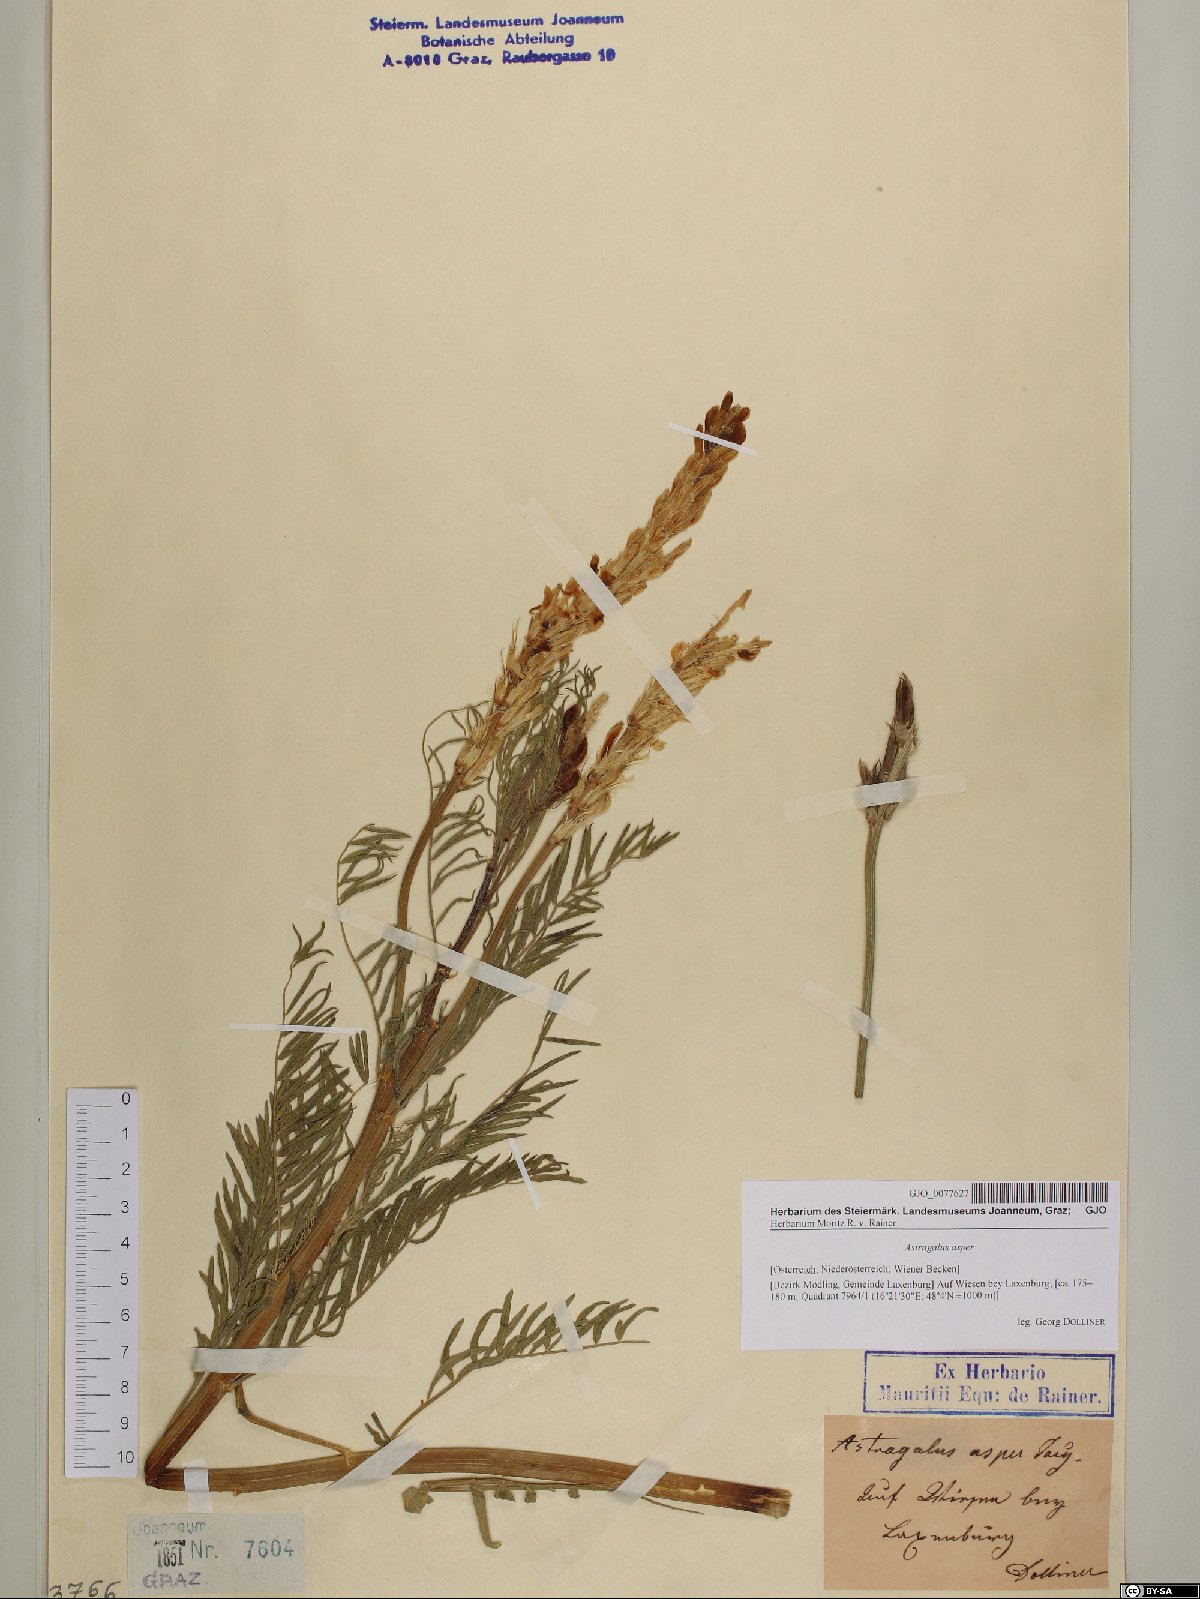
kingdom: Plantae
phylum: Tracheophyta
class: Magnoliopsida
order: Fabales
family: Fabaceae
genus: Astragalus
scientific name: Astragalus asper
